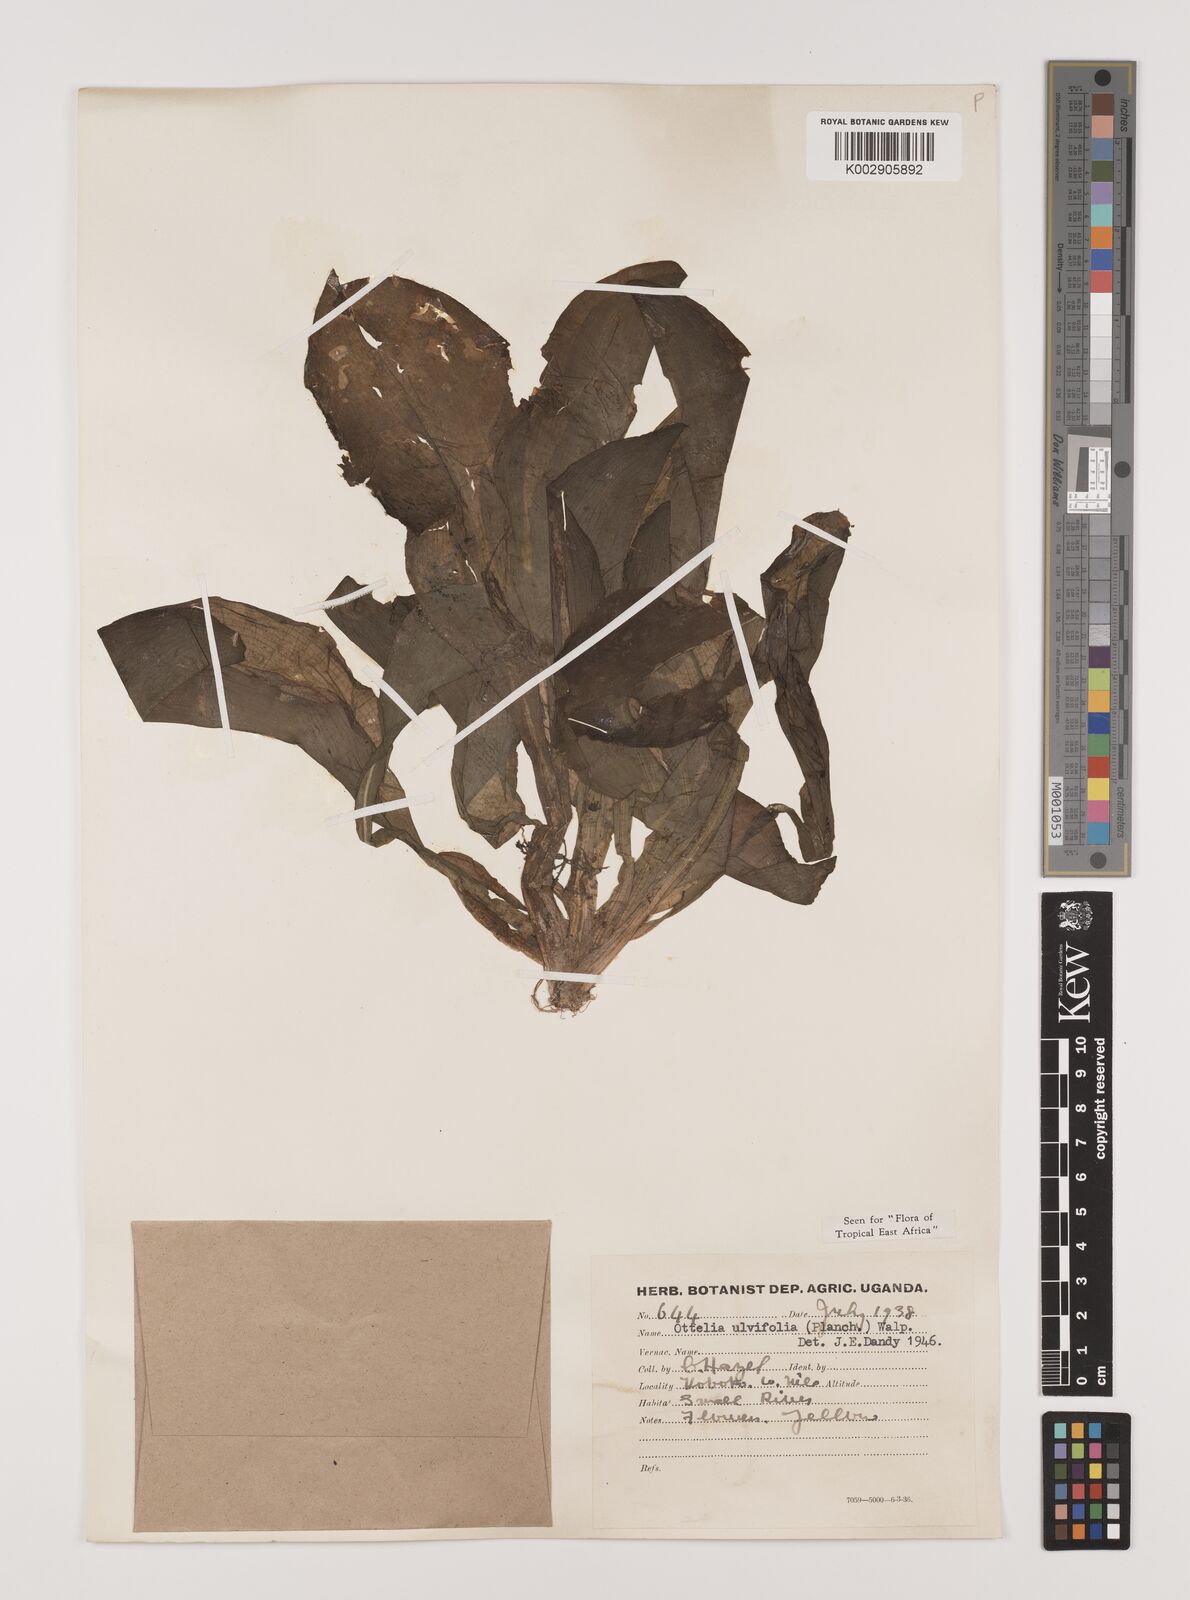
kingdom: Plantae
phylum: Tracheophyta
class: Liliopsida
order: Alismatales
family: Hydrocharitaceae
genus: Ottelia
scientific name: Ottelia ulvifolia
